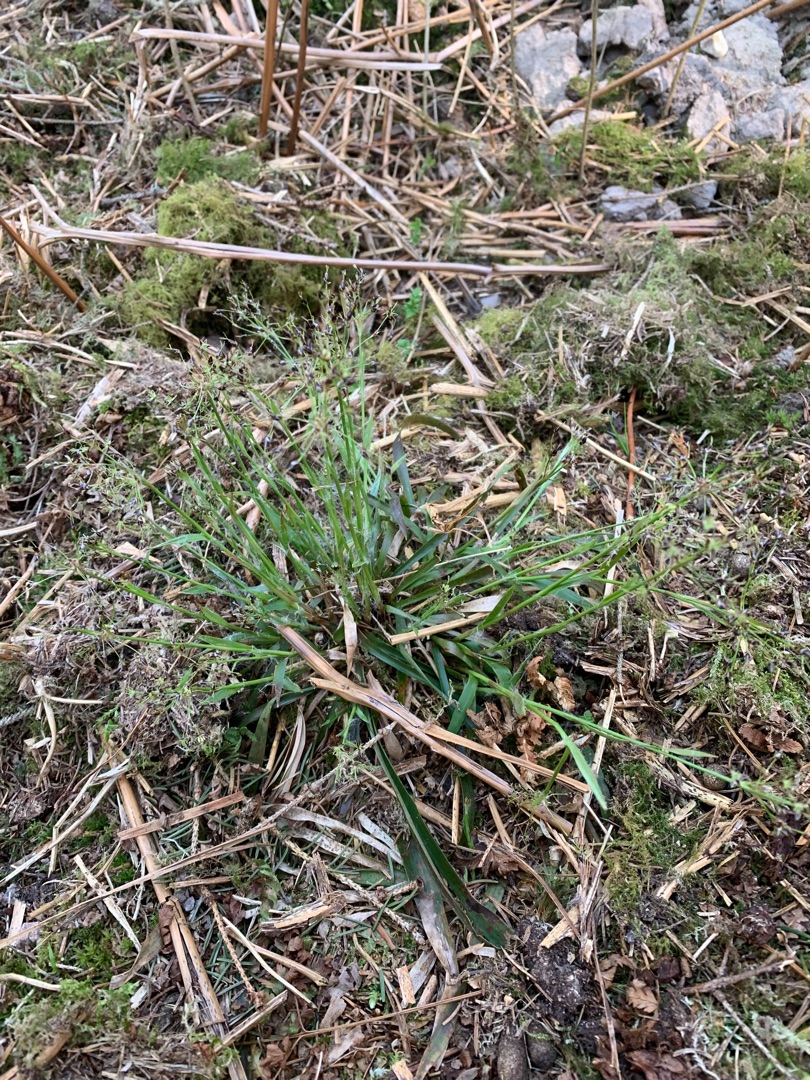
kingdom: Plantae
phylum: Tracheophyta
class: Liliopsida
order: Poales
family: Juncaceae
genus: Luzula
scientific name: Luzula pilosa
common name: Håret frytle
